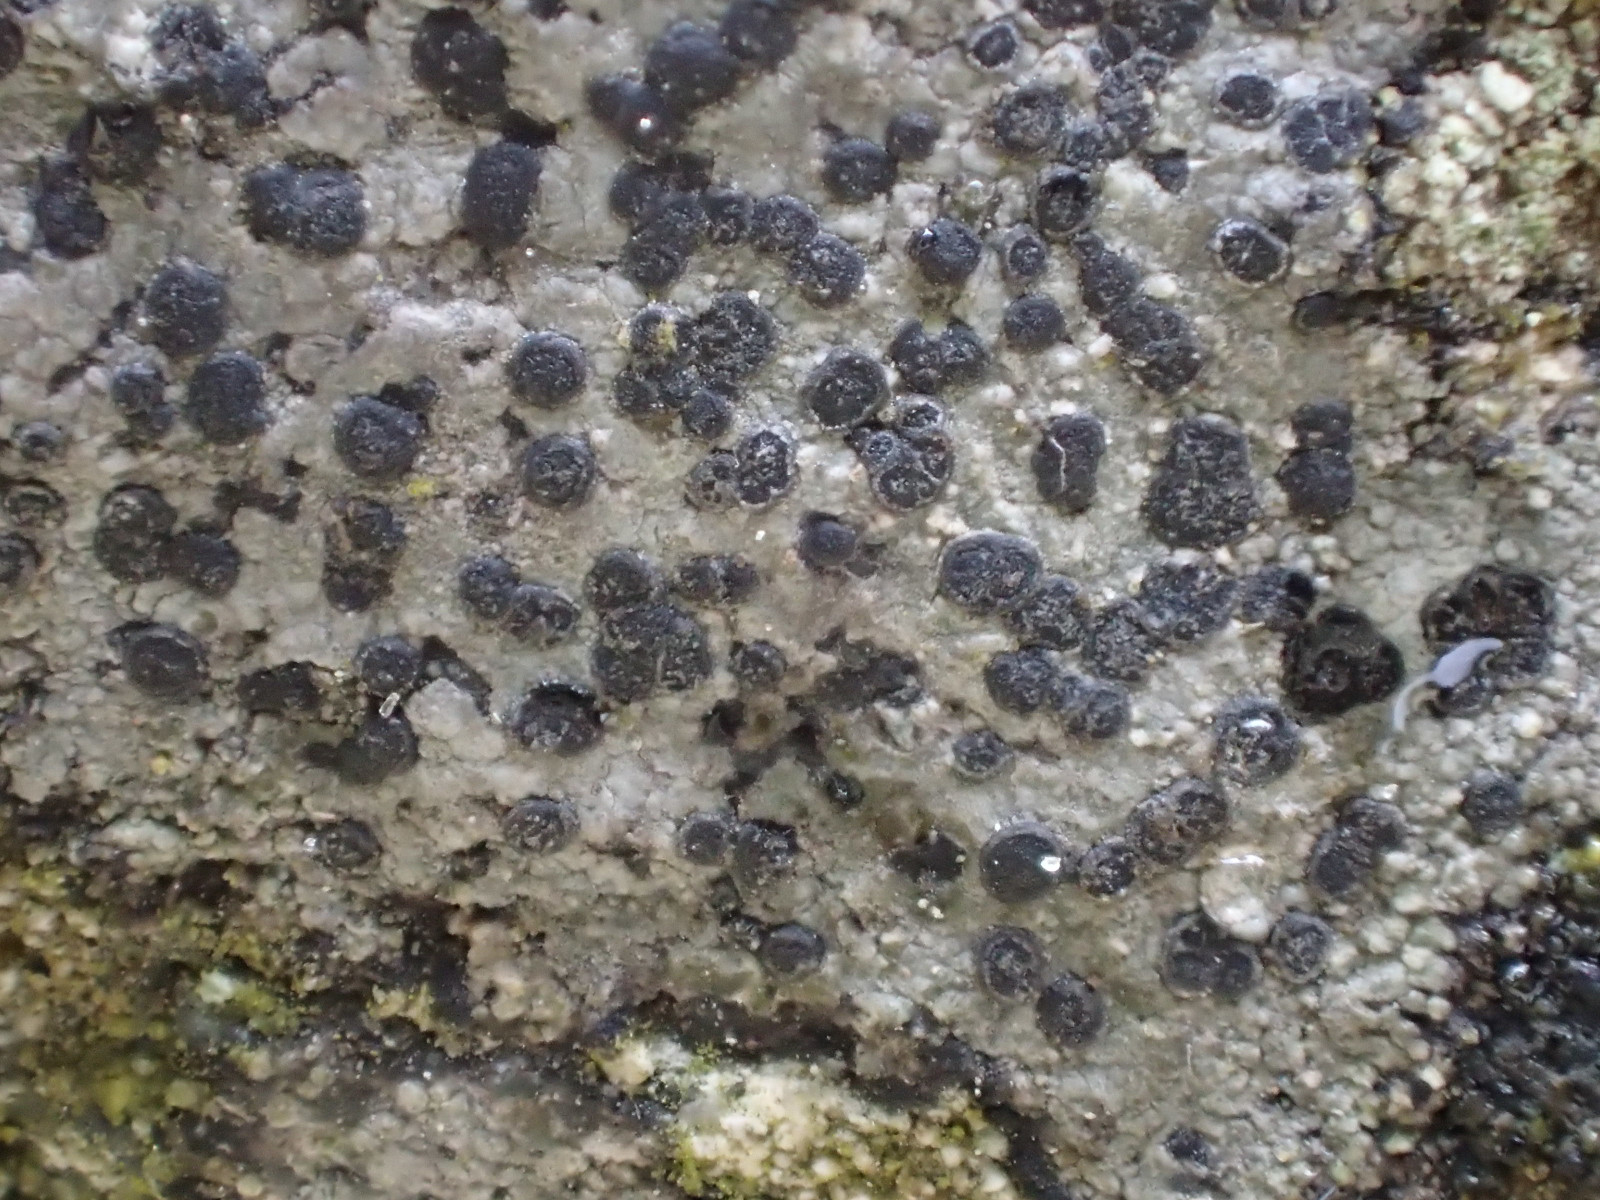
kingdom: Fungi
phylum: Ascomycota
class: Lecanoromycetes
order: Rhizocarpales
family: Rhizocarpaceae
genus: Rhizocarpon
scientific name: Rhizocarpon reductum
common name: mørk landkortlav
